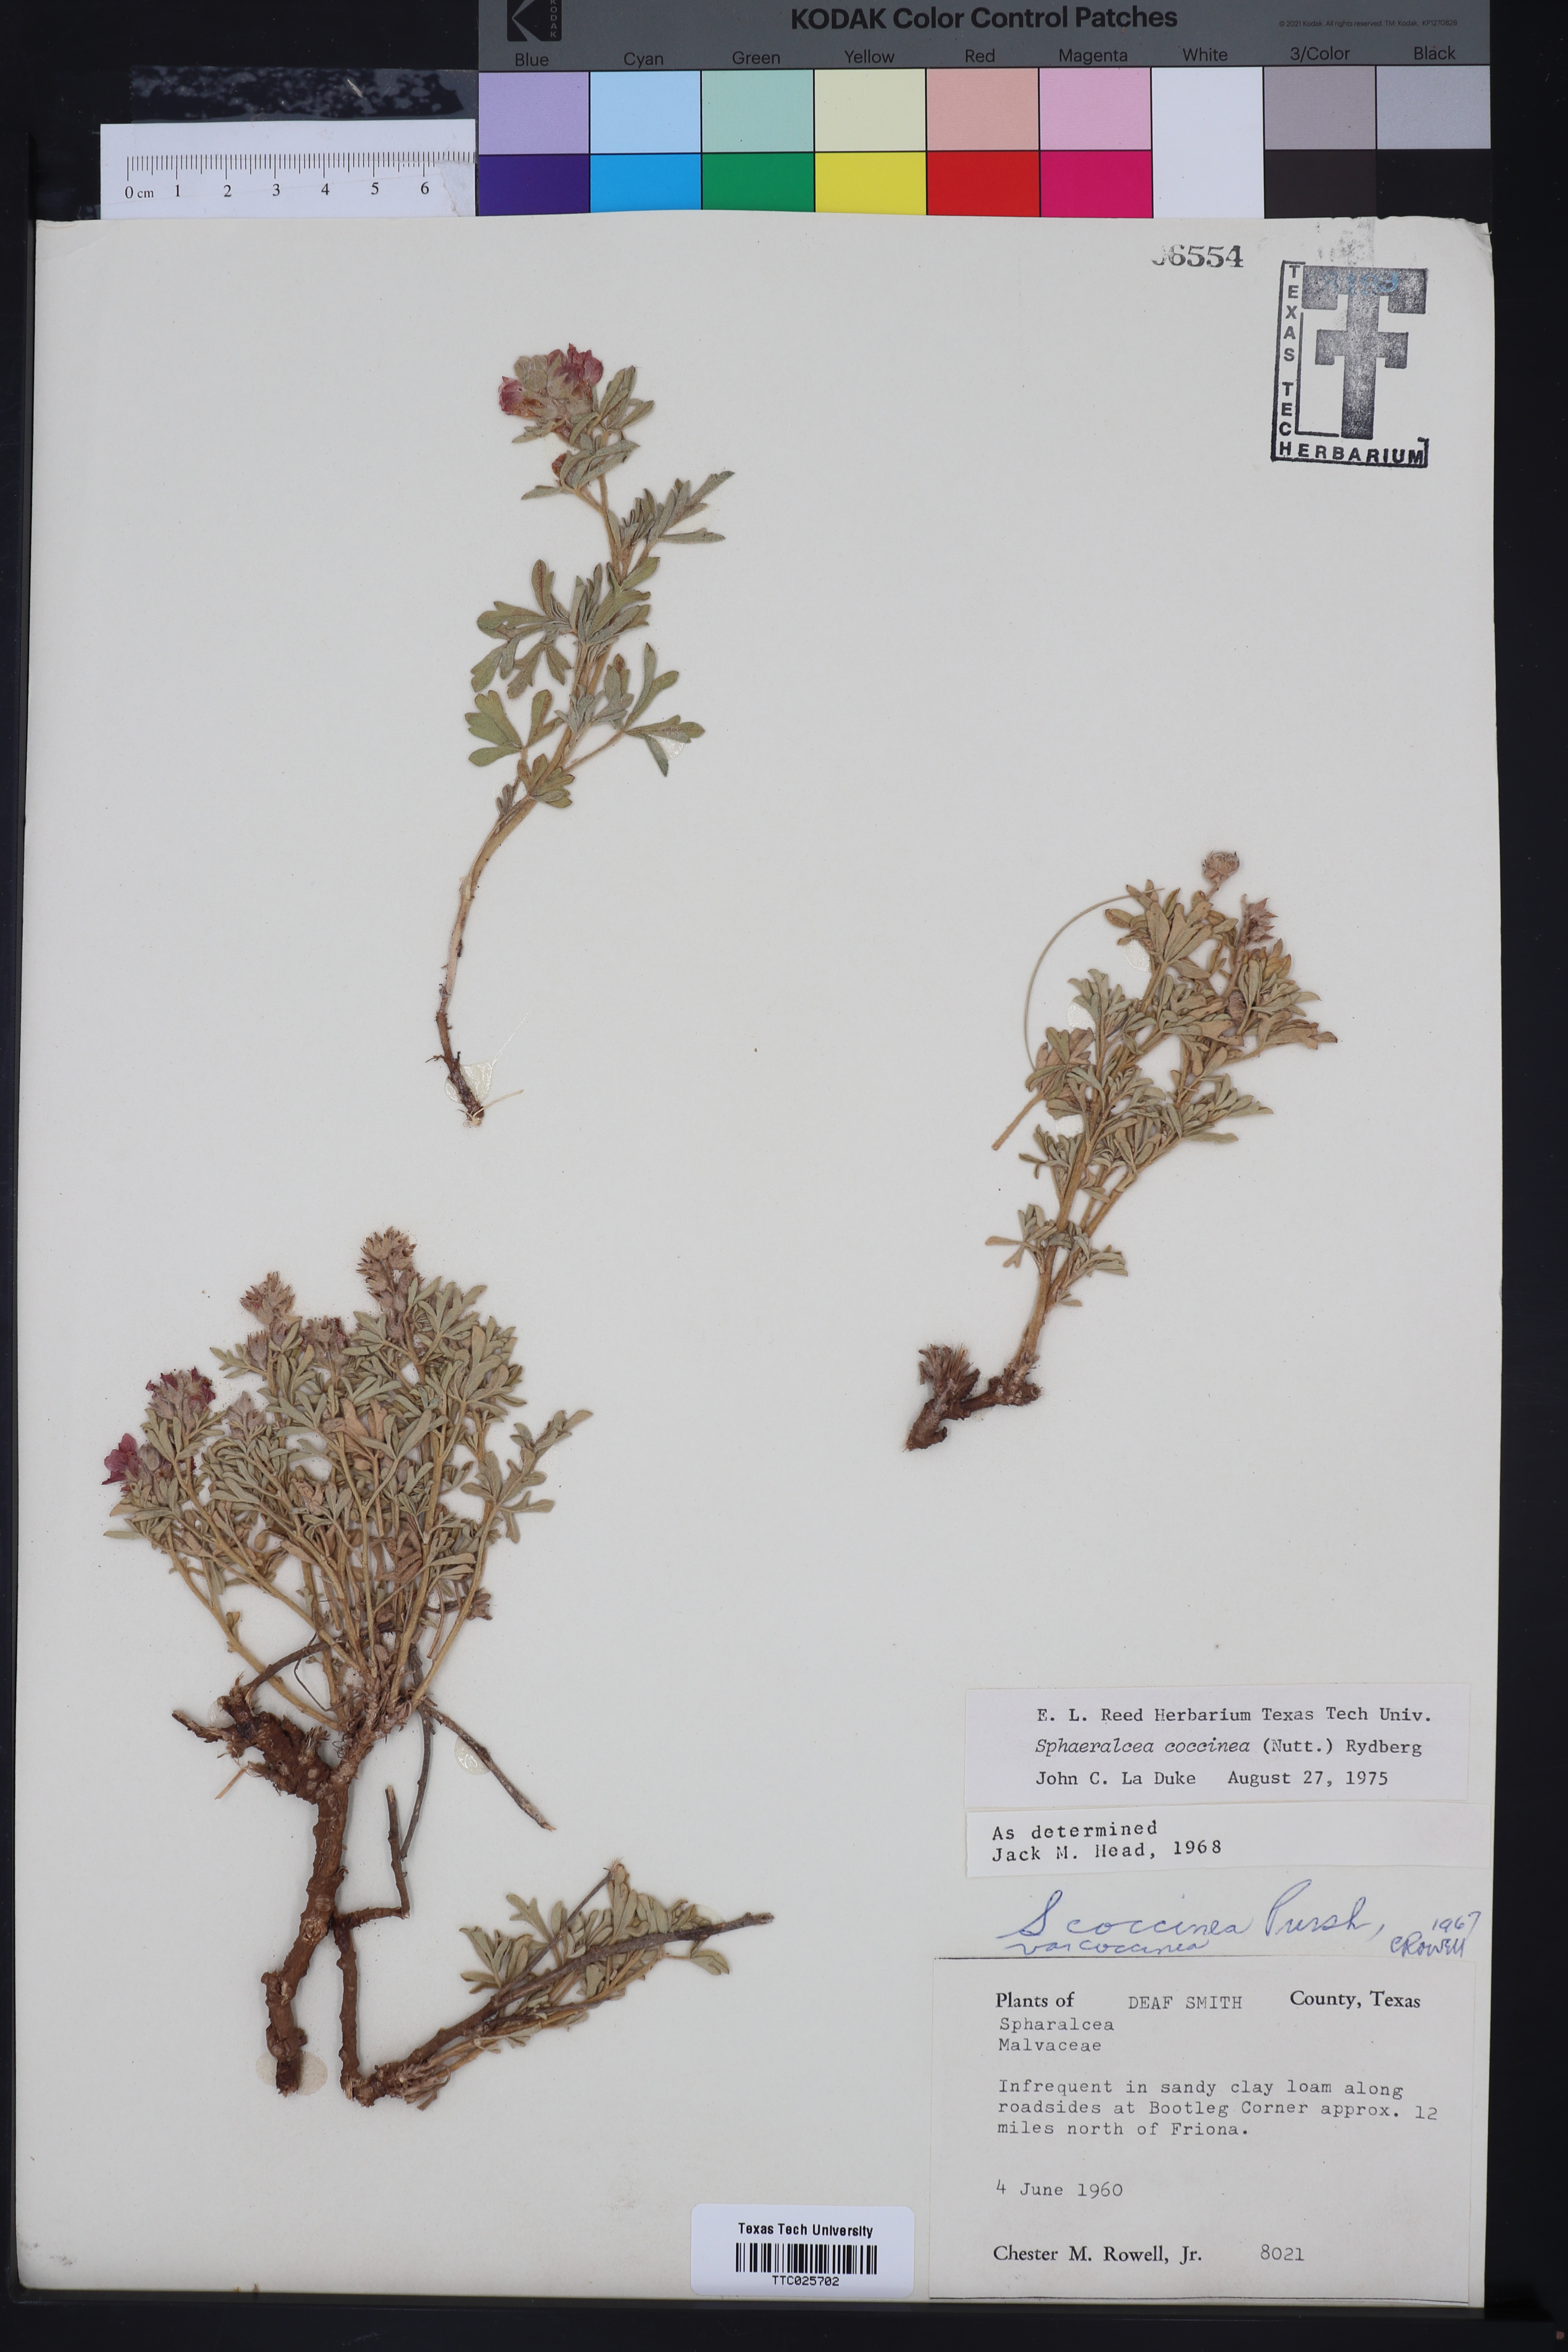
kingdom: Plantae
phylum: Tracheophyta
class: Magnoliopsida
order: Malvales
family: Malvaceae
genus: Sphaeralcea
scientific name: Sphaeralcea coccinea
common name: Moss-rose
